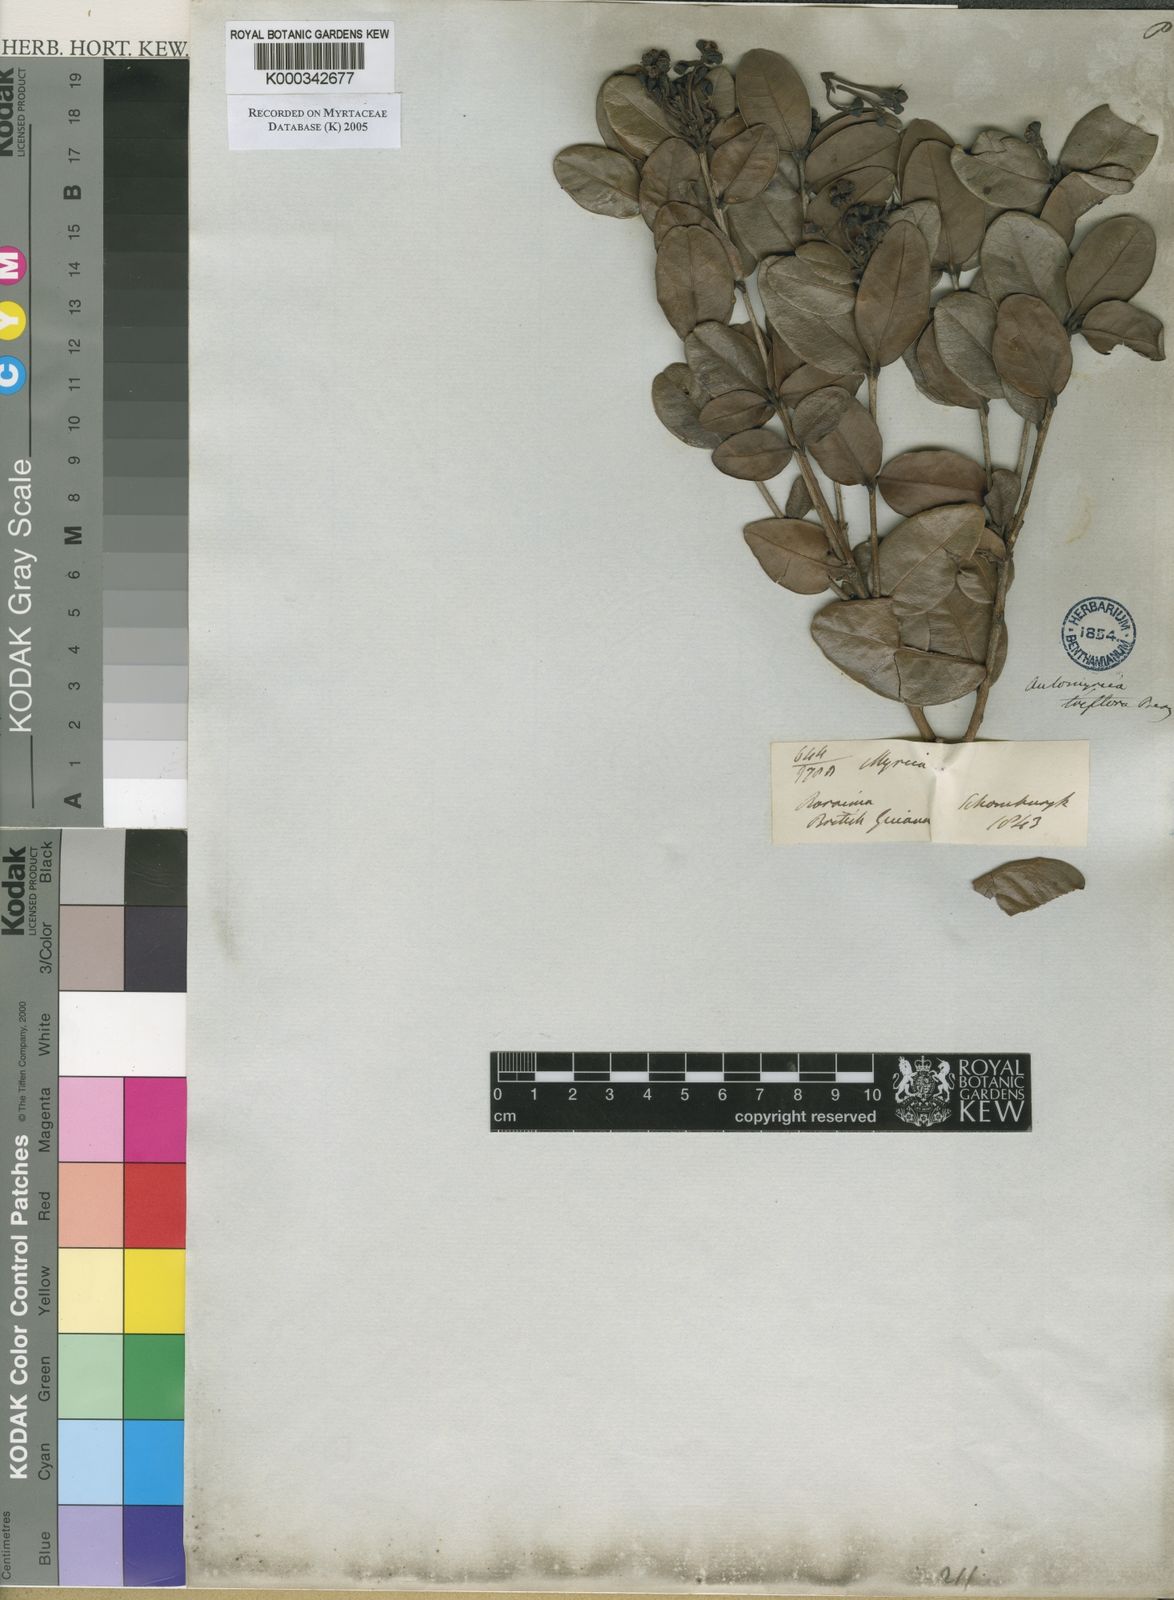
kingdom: Plantae
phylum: Tracheophyta
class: Magnoliopsida
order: Myrtales
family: Myrtaceae
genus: Myrcia
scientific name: Myrcia guianensis
